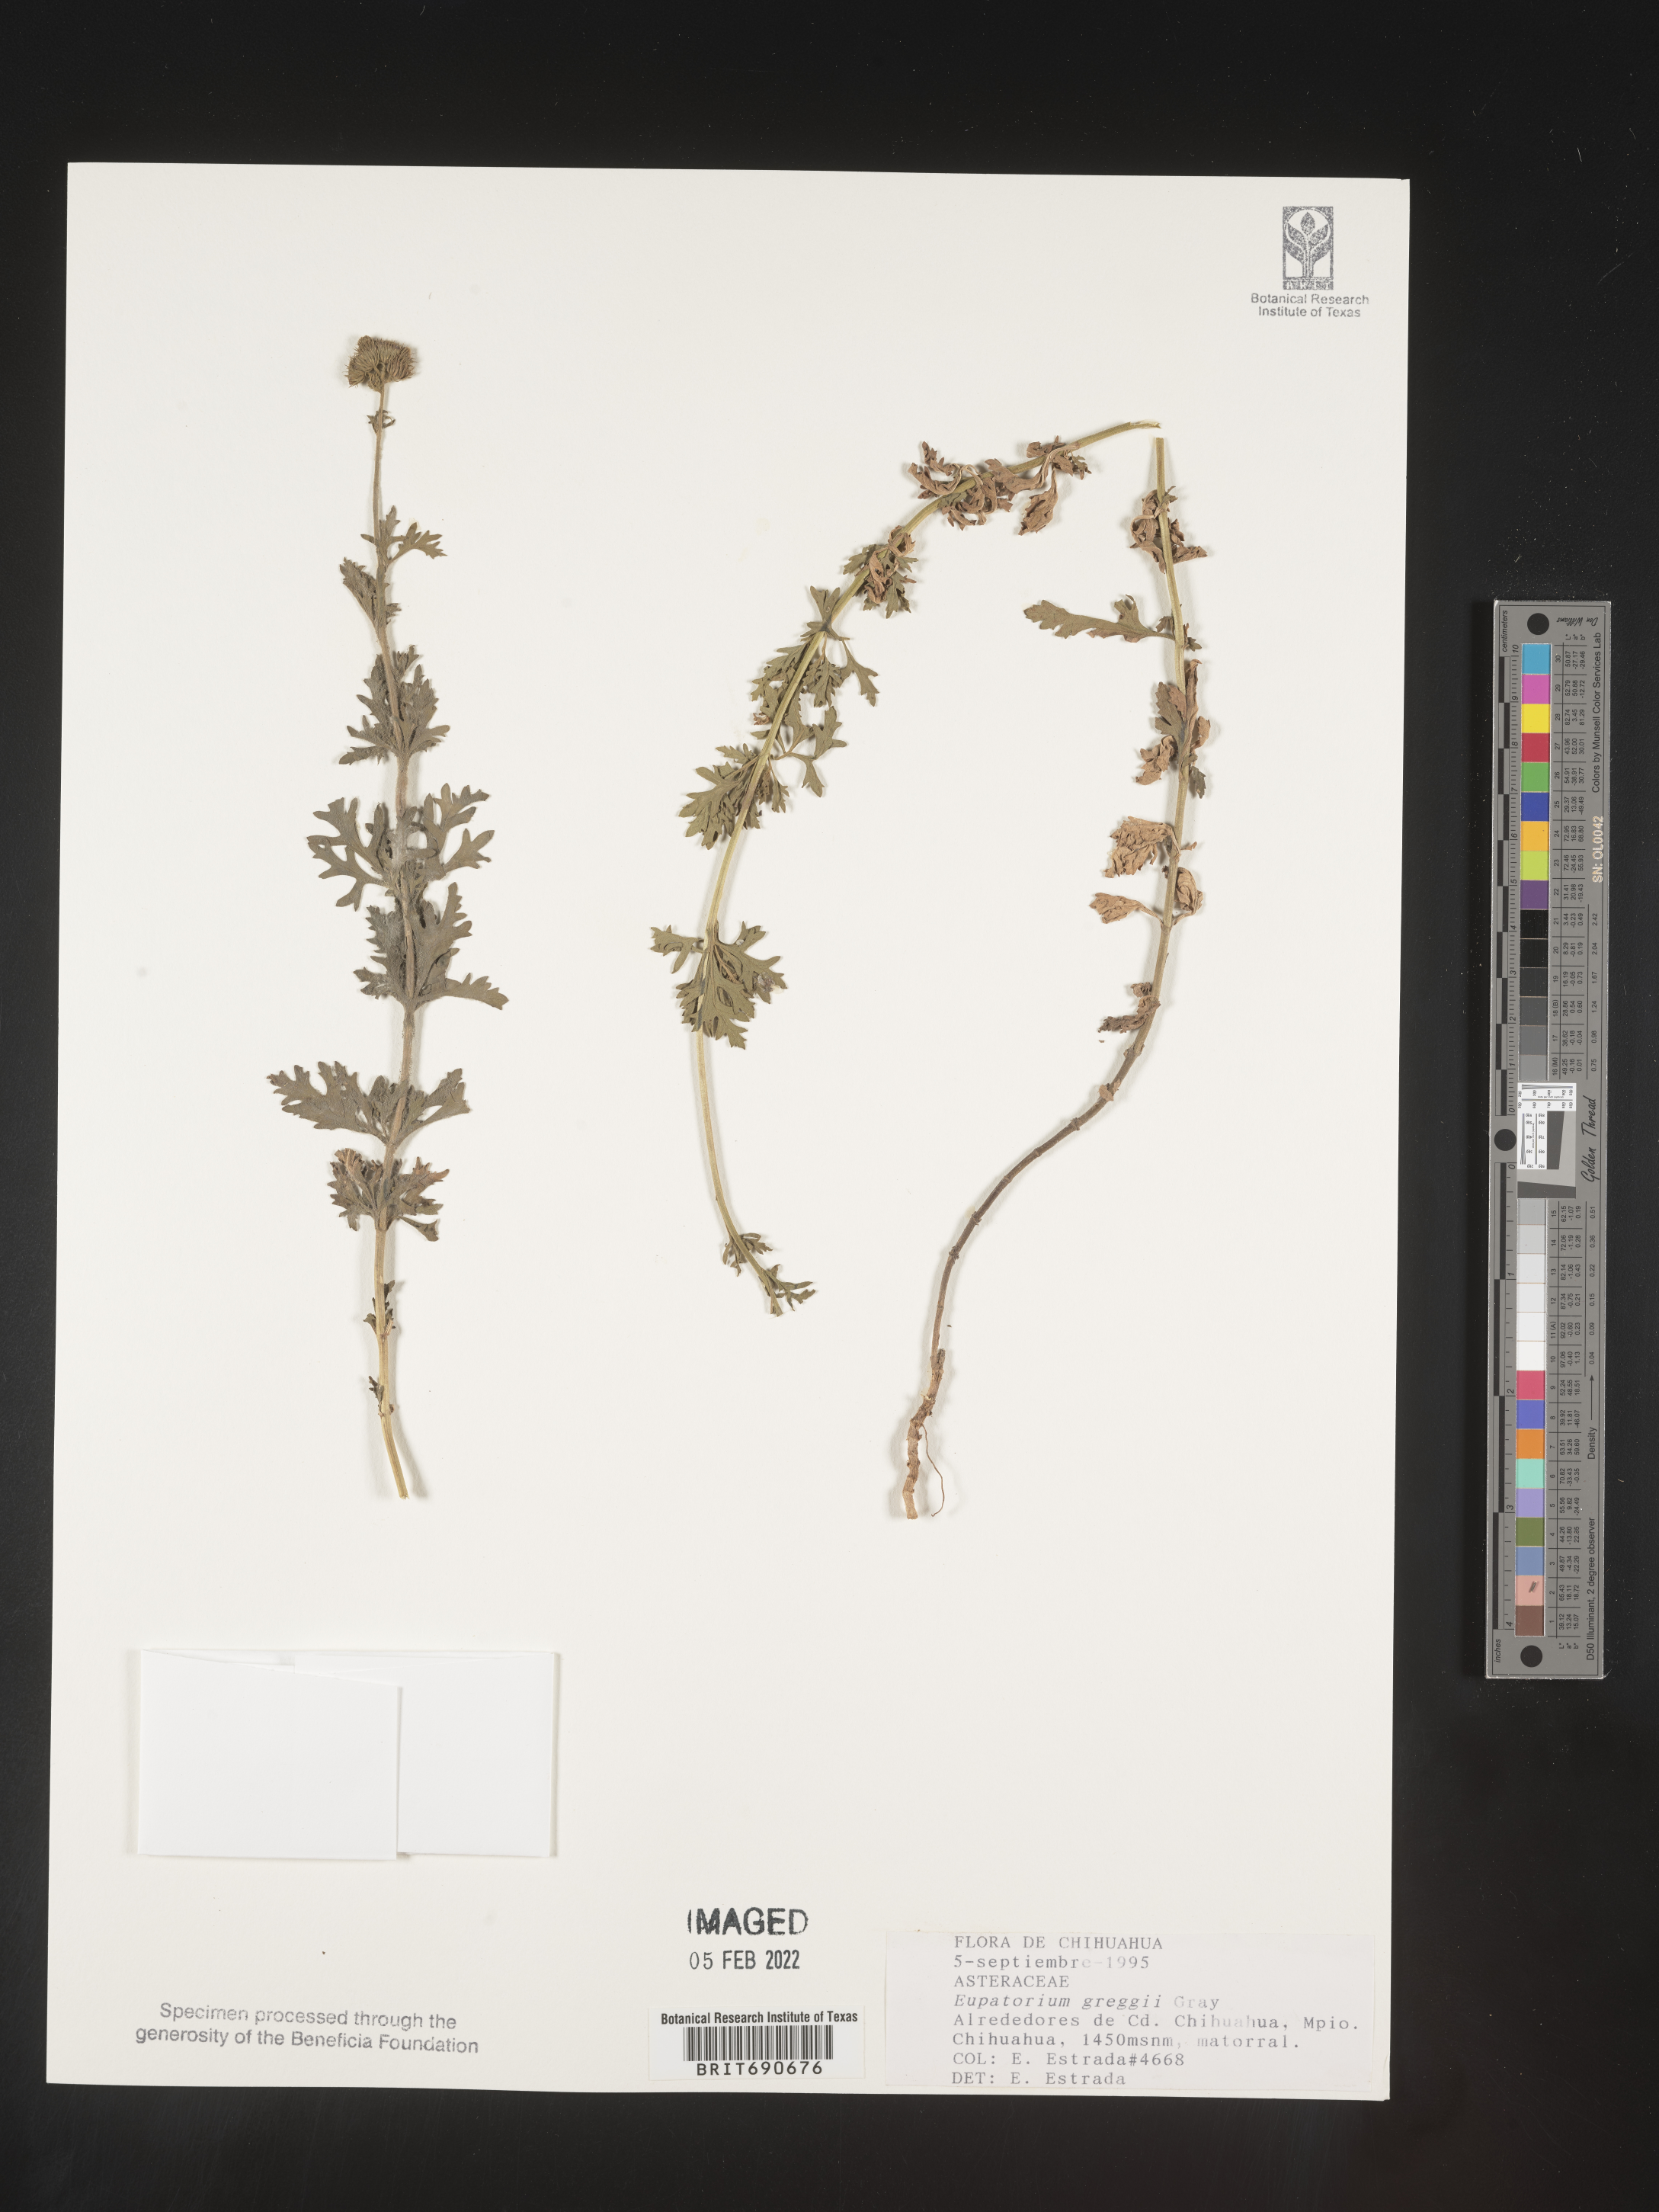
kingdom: Plantae
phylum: Tracheophyta
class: Magnoliopsida
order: Asterales
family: Asteraceae
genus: Conoclinium
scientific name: Conoclinium
